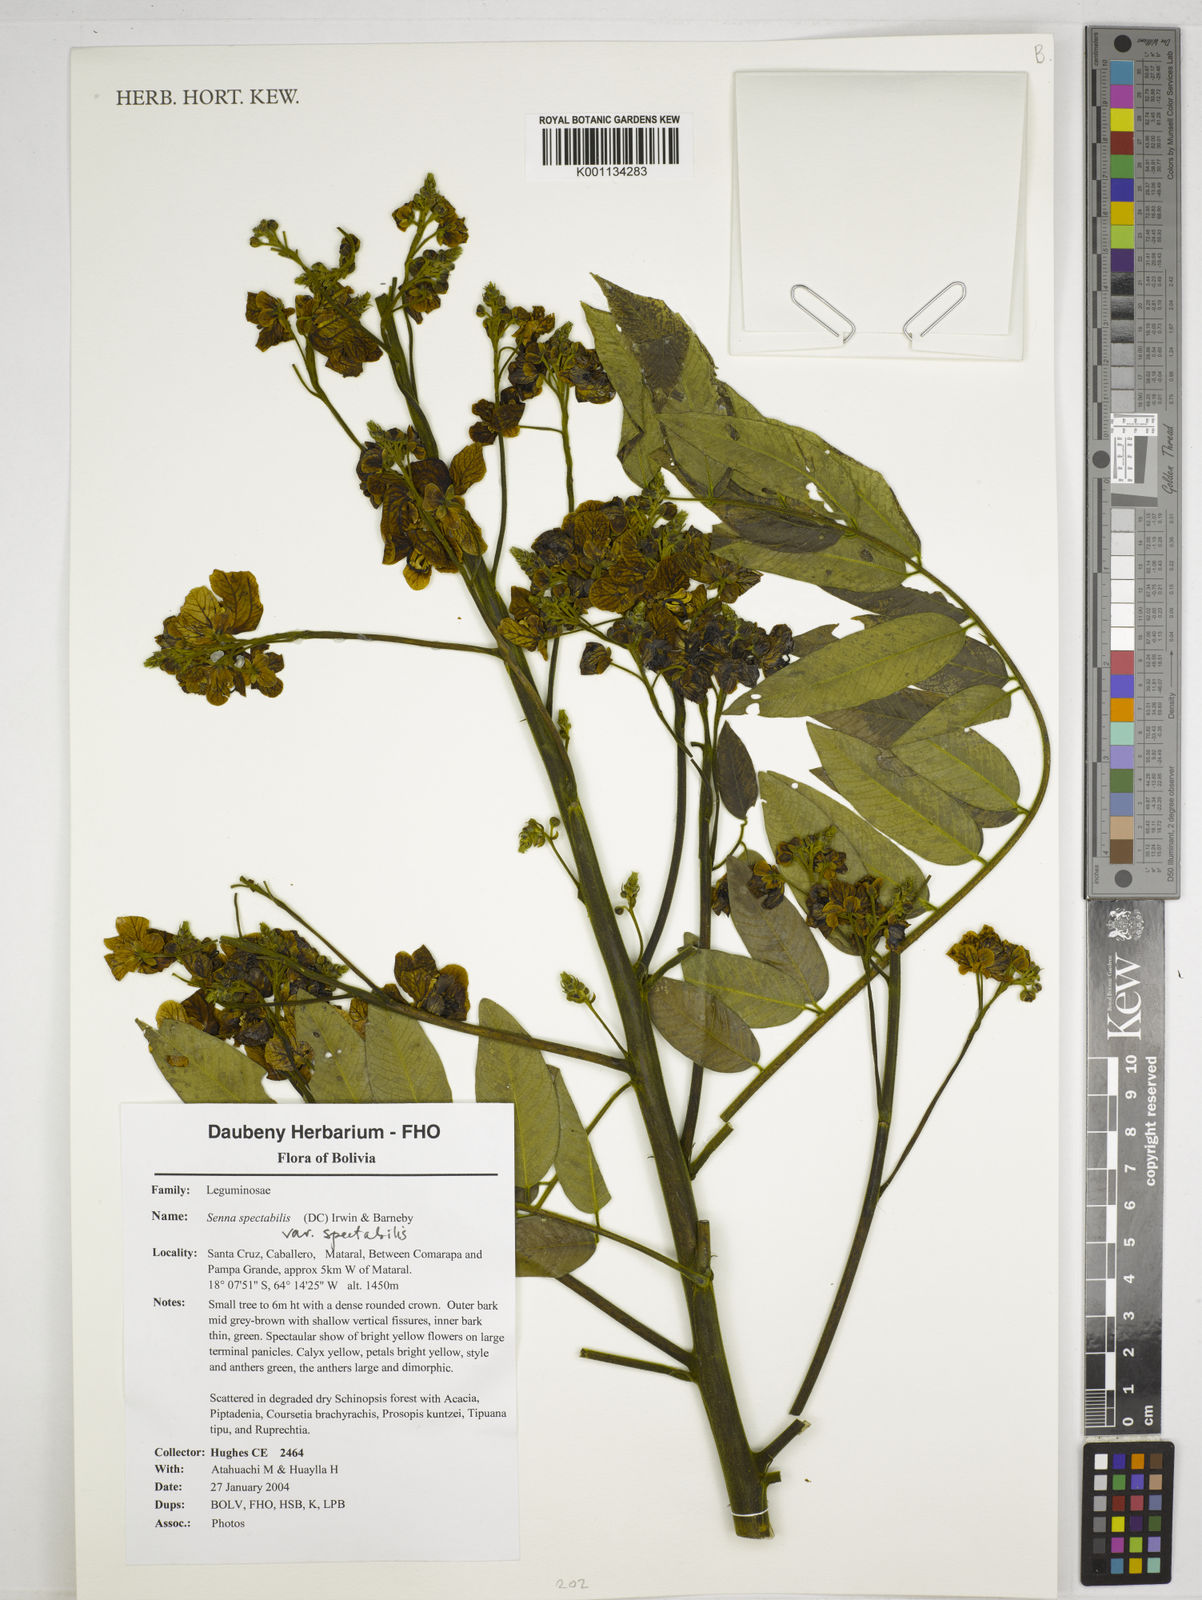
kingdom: Plantae
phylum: Tracheophyta
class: Magnoliopsida
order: Fabales
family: Fabaceae
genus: Senna
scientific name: Senna spectabilis
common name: Casia amarilla
